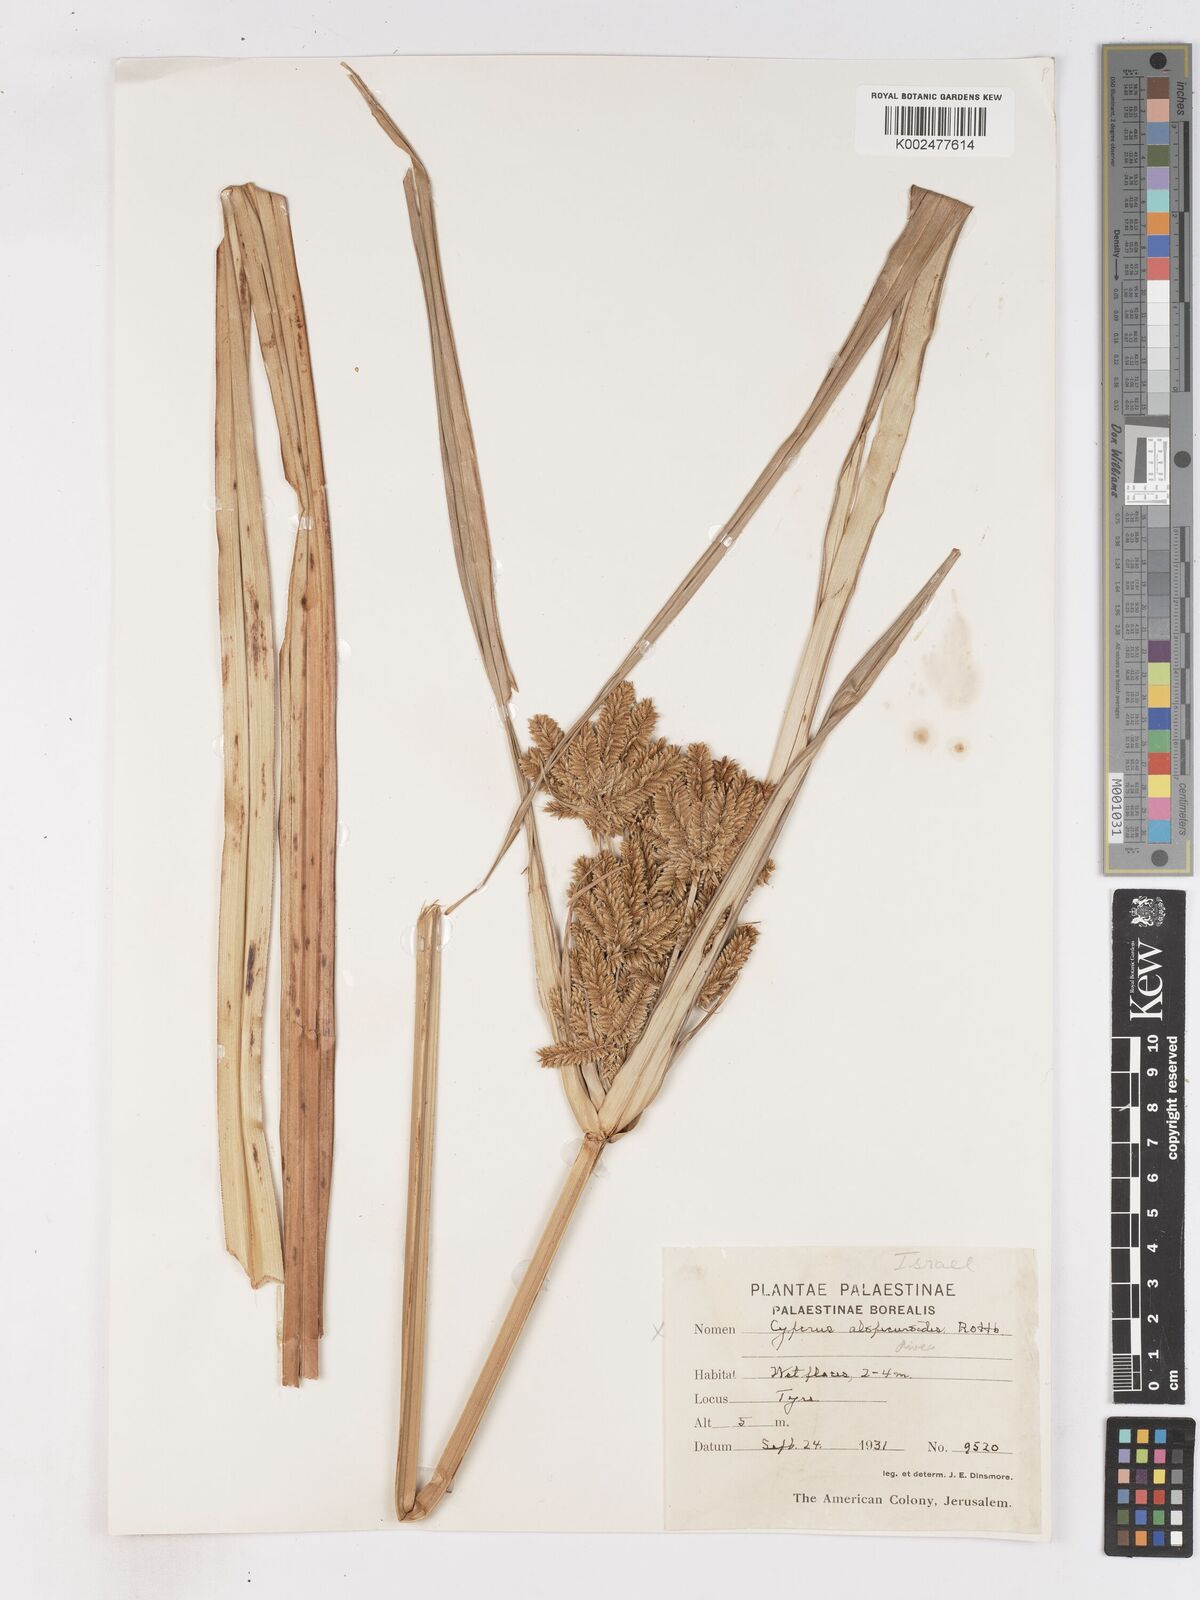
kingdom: Plantae
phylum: Tracheophyta
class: Liliopsida
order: Poales
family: Cyperaceae
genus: Cyperus
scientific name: Cyperus dives
